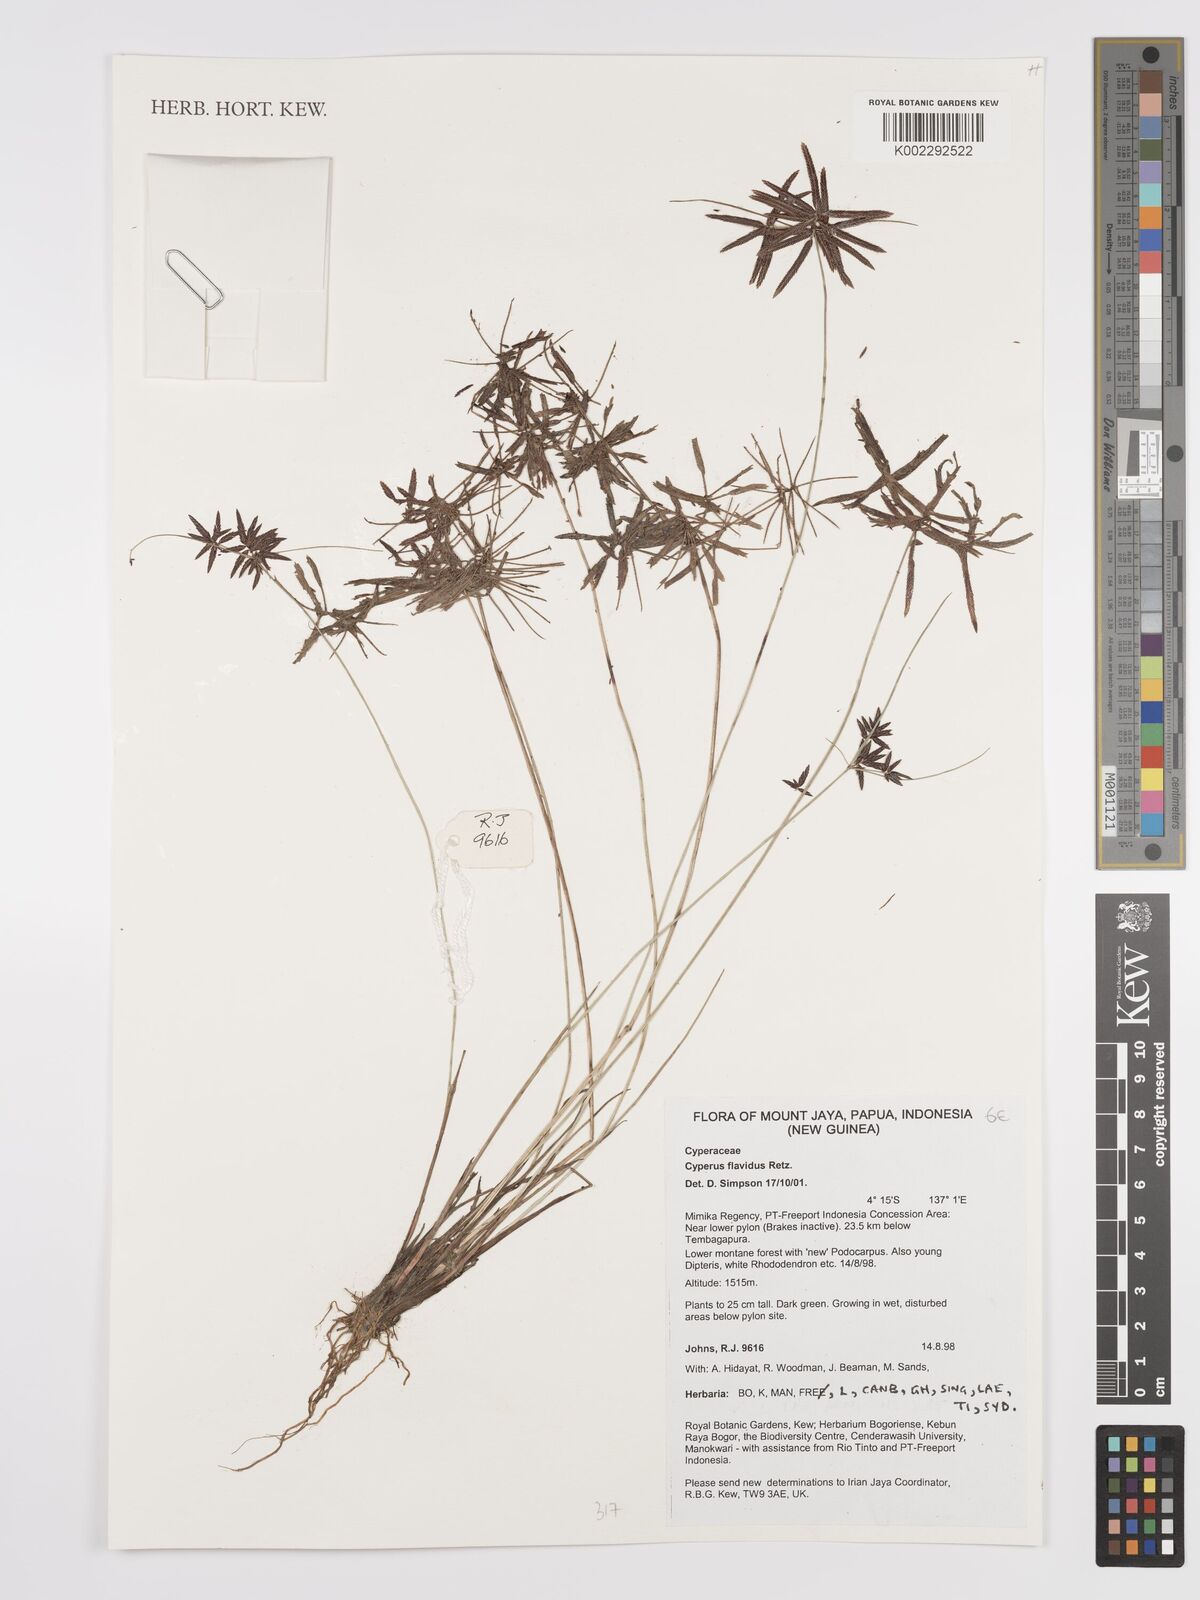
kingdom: Plantae
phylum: Tracheophyta
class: Liliopsida
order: Poales
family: Cyperaceae
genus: Cyperus
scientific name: Cyperus flavidus
